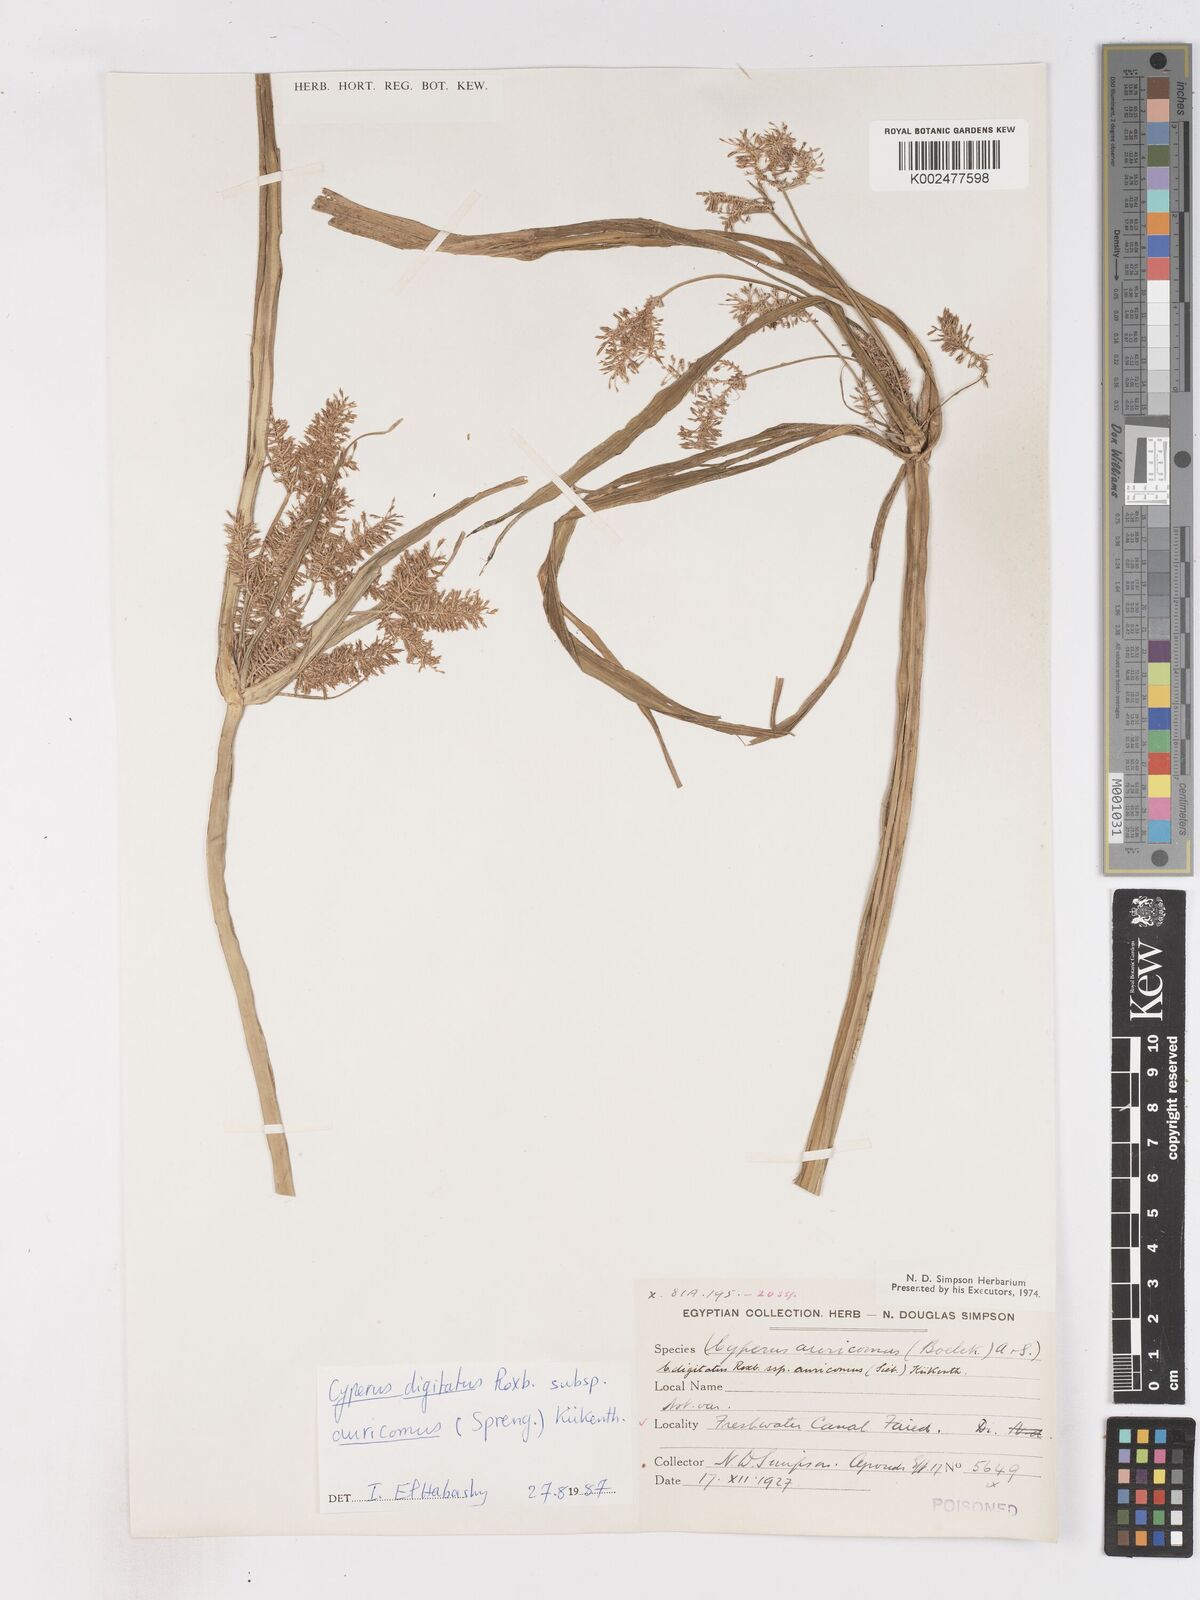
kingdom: Plantae
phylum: Tracheophyta
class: Liliopsida
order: Poales
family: Cyperaceae
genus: Cyperus
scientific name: Cyperus digitatus
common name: Finger flatsedge
